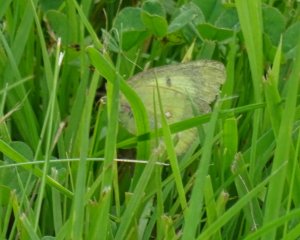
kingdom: Animalia
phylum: Arthropoda
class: Insecta
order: Lepidoptera
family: Pieridae
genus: Colias
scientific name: Colias philodice
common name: Clouded Sulphur
